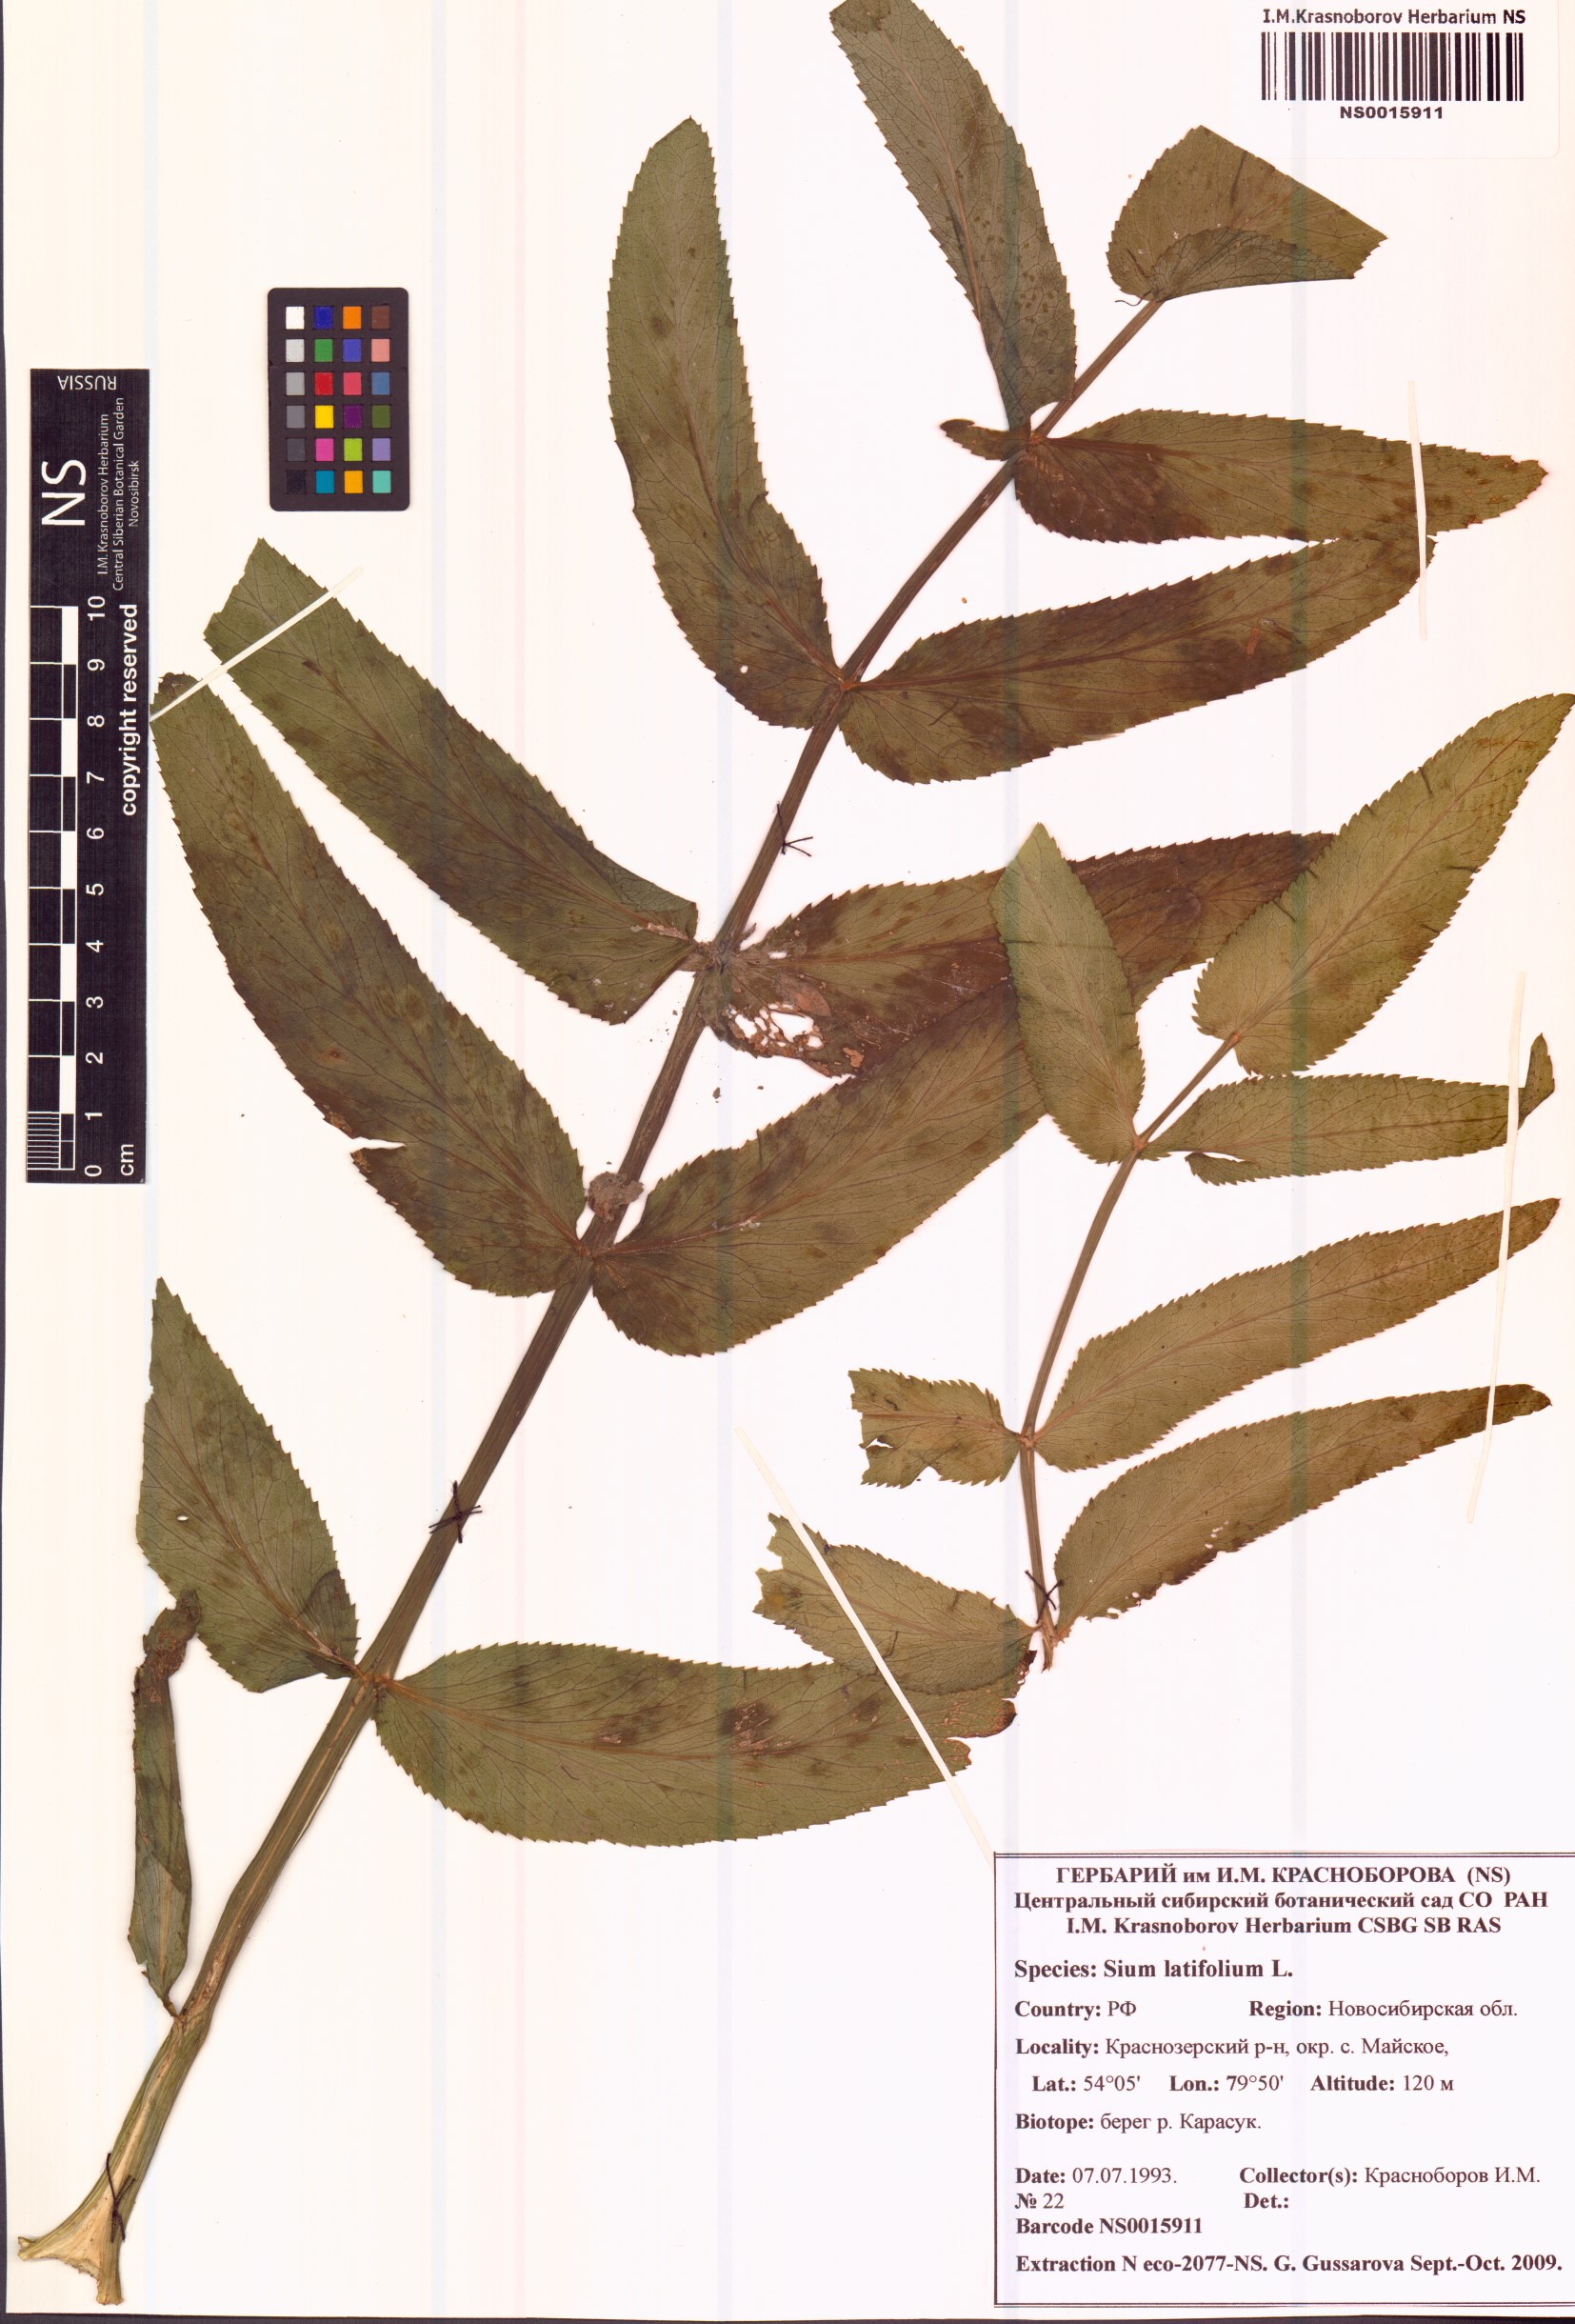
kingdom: Plantae
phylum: Tracheophyta
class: Magnoliopsida
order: Apiales
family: Apiaceae
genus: Sium
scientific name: Sium latifolium
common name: Greater water-parsnip
